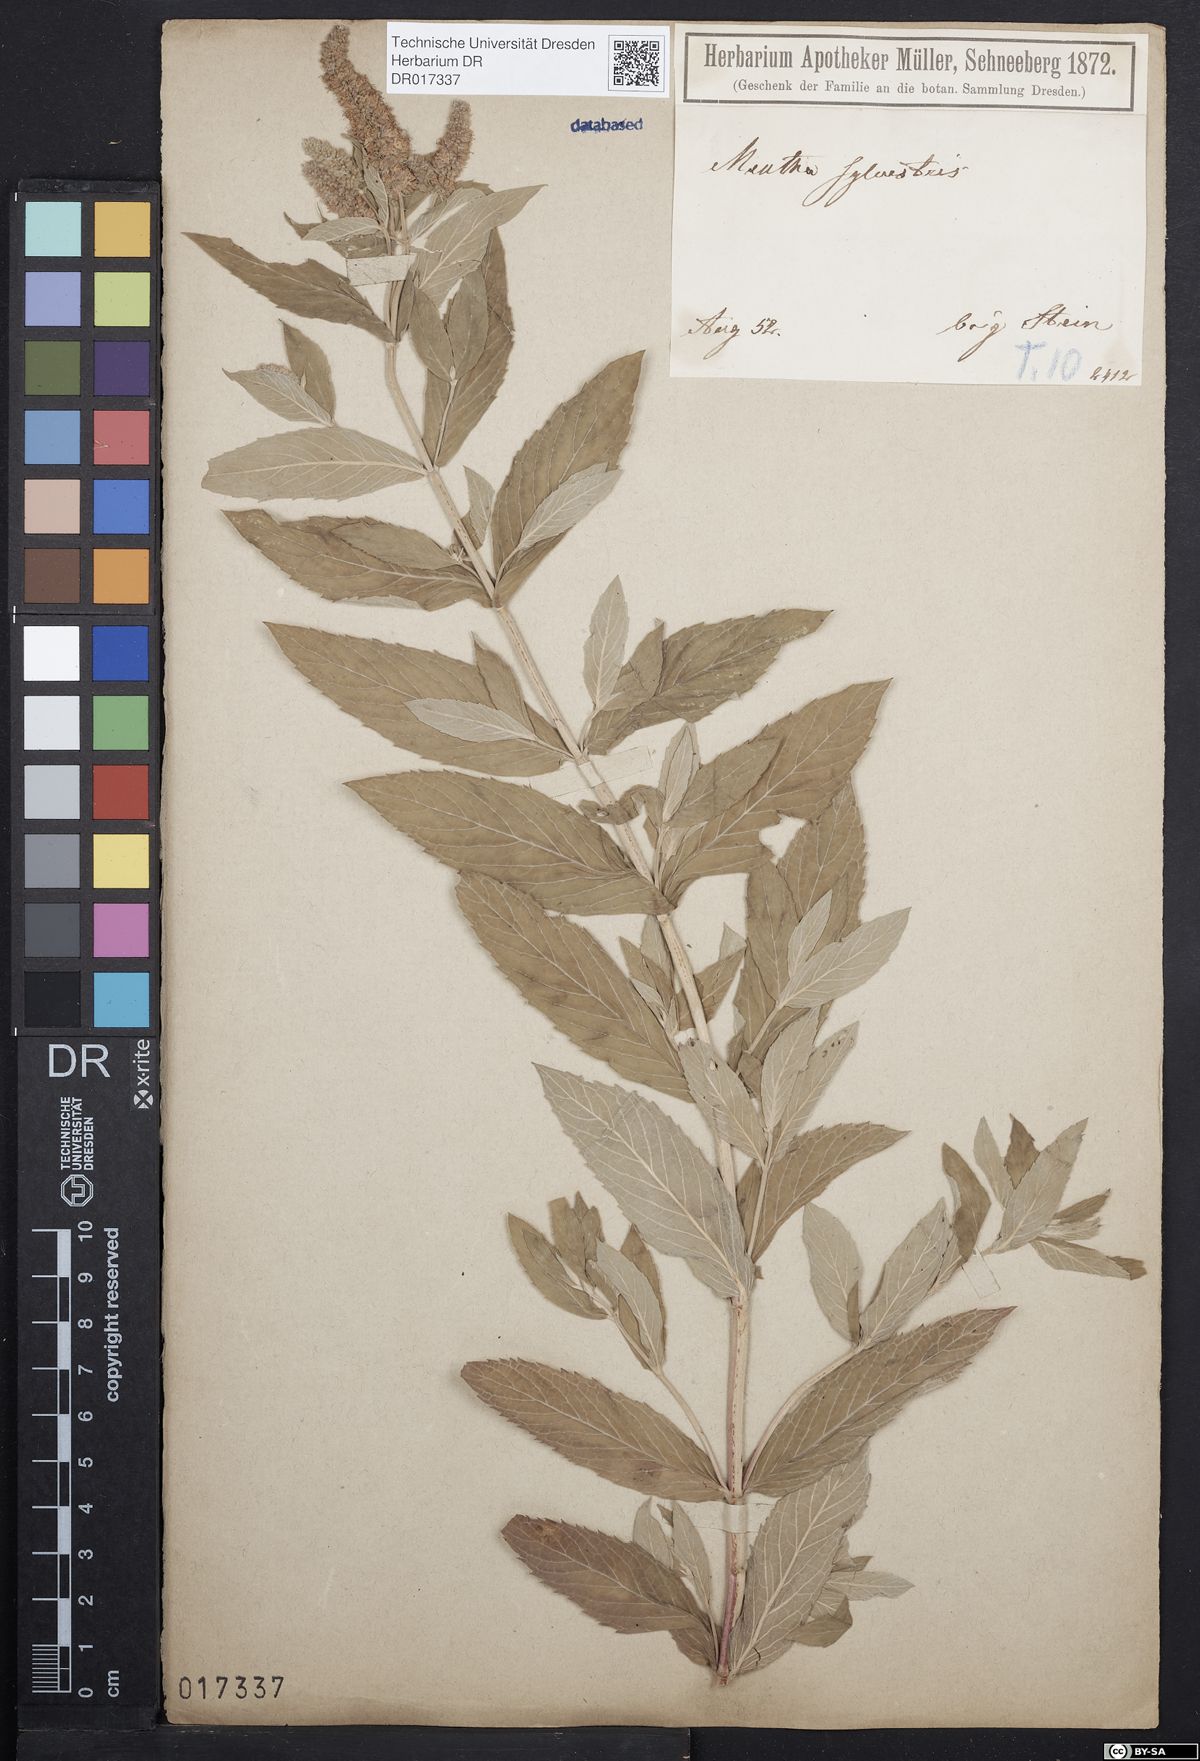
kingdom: Plantae
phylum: Tracheophyta
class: Magnoliopsida
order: Lamiales
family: Lamiaceae
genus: Mentha
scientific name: Mentha longifolia
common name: Horse mint
